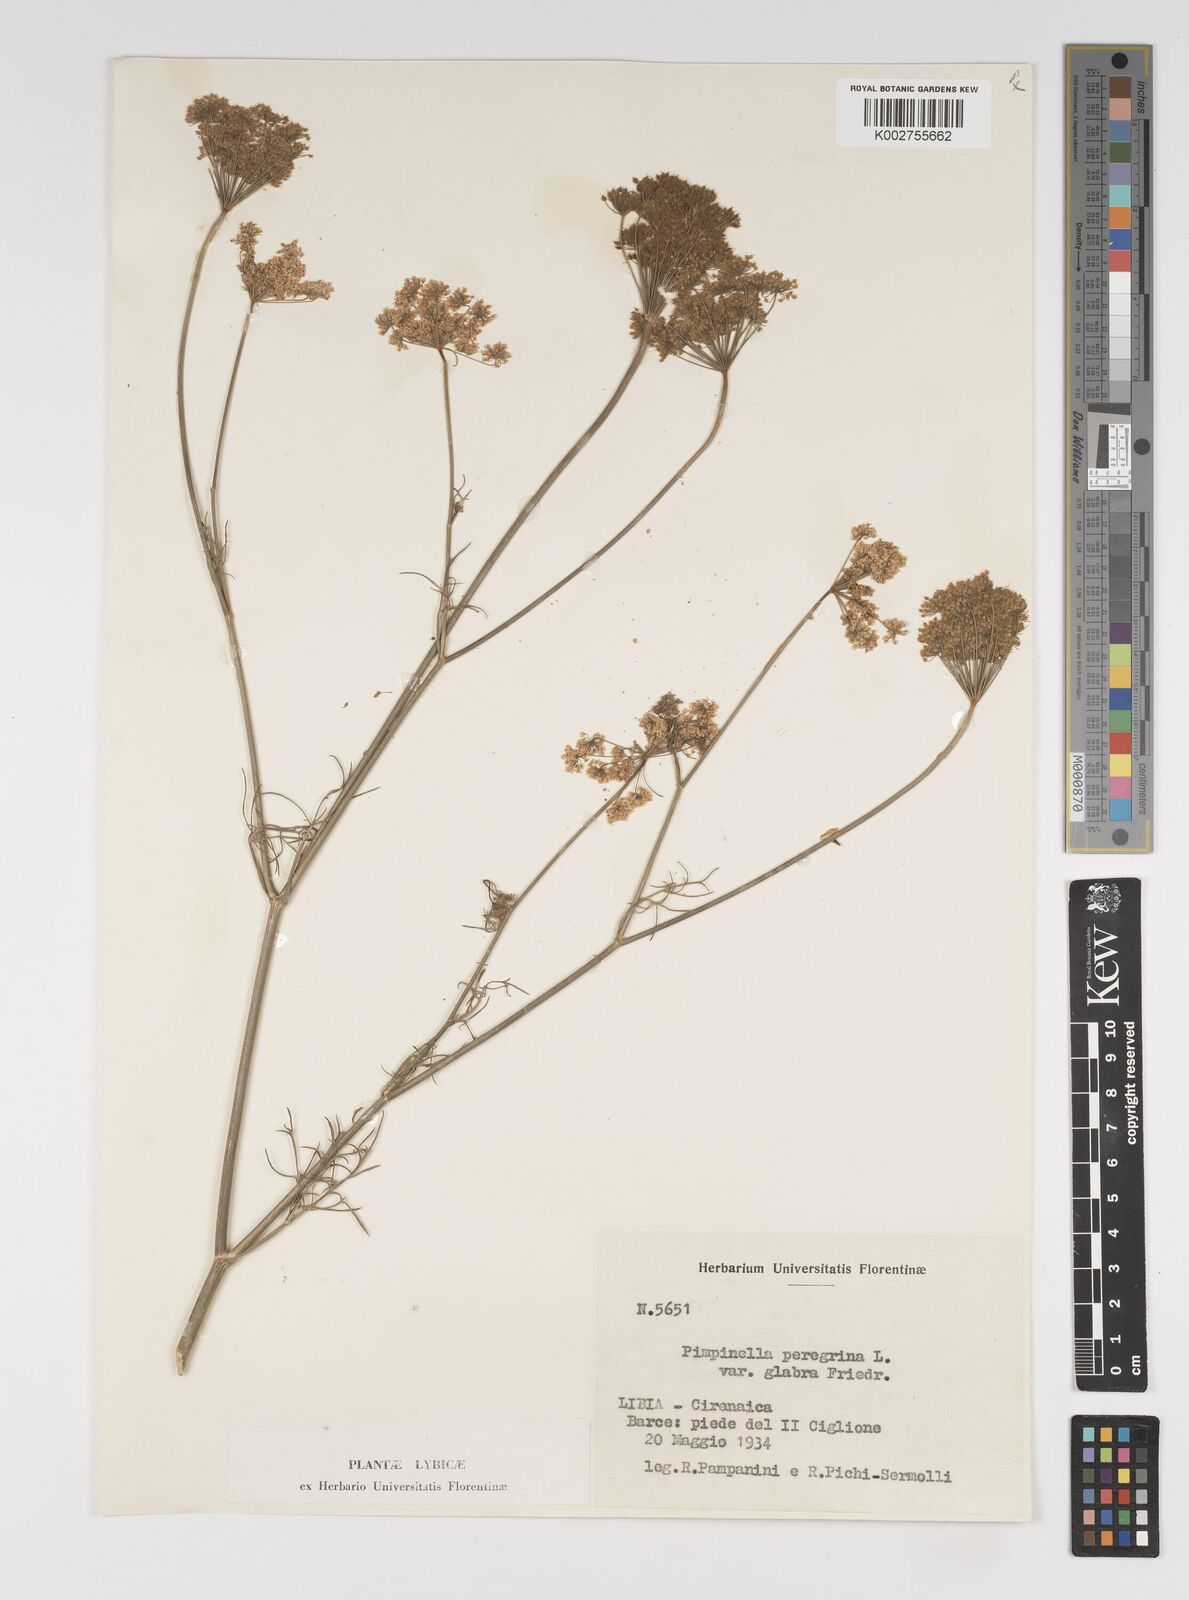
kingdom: Plantae
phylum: Tracheophyta
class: Magnoliopsida
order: Apiales
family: Apiaceae
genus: Pimpinella
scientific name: Pimpinella peregrina
